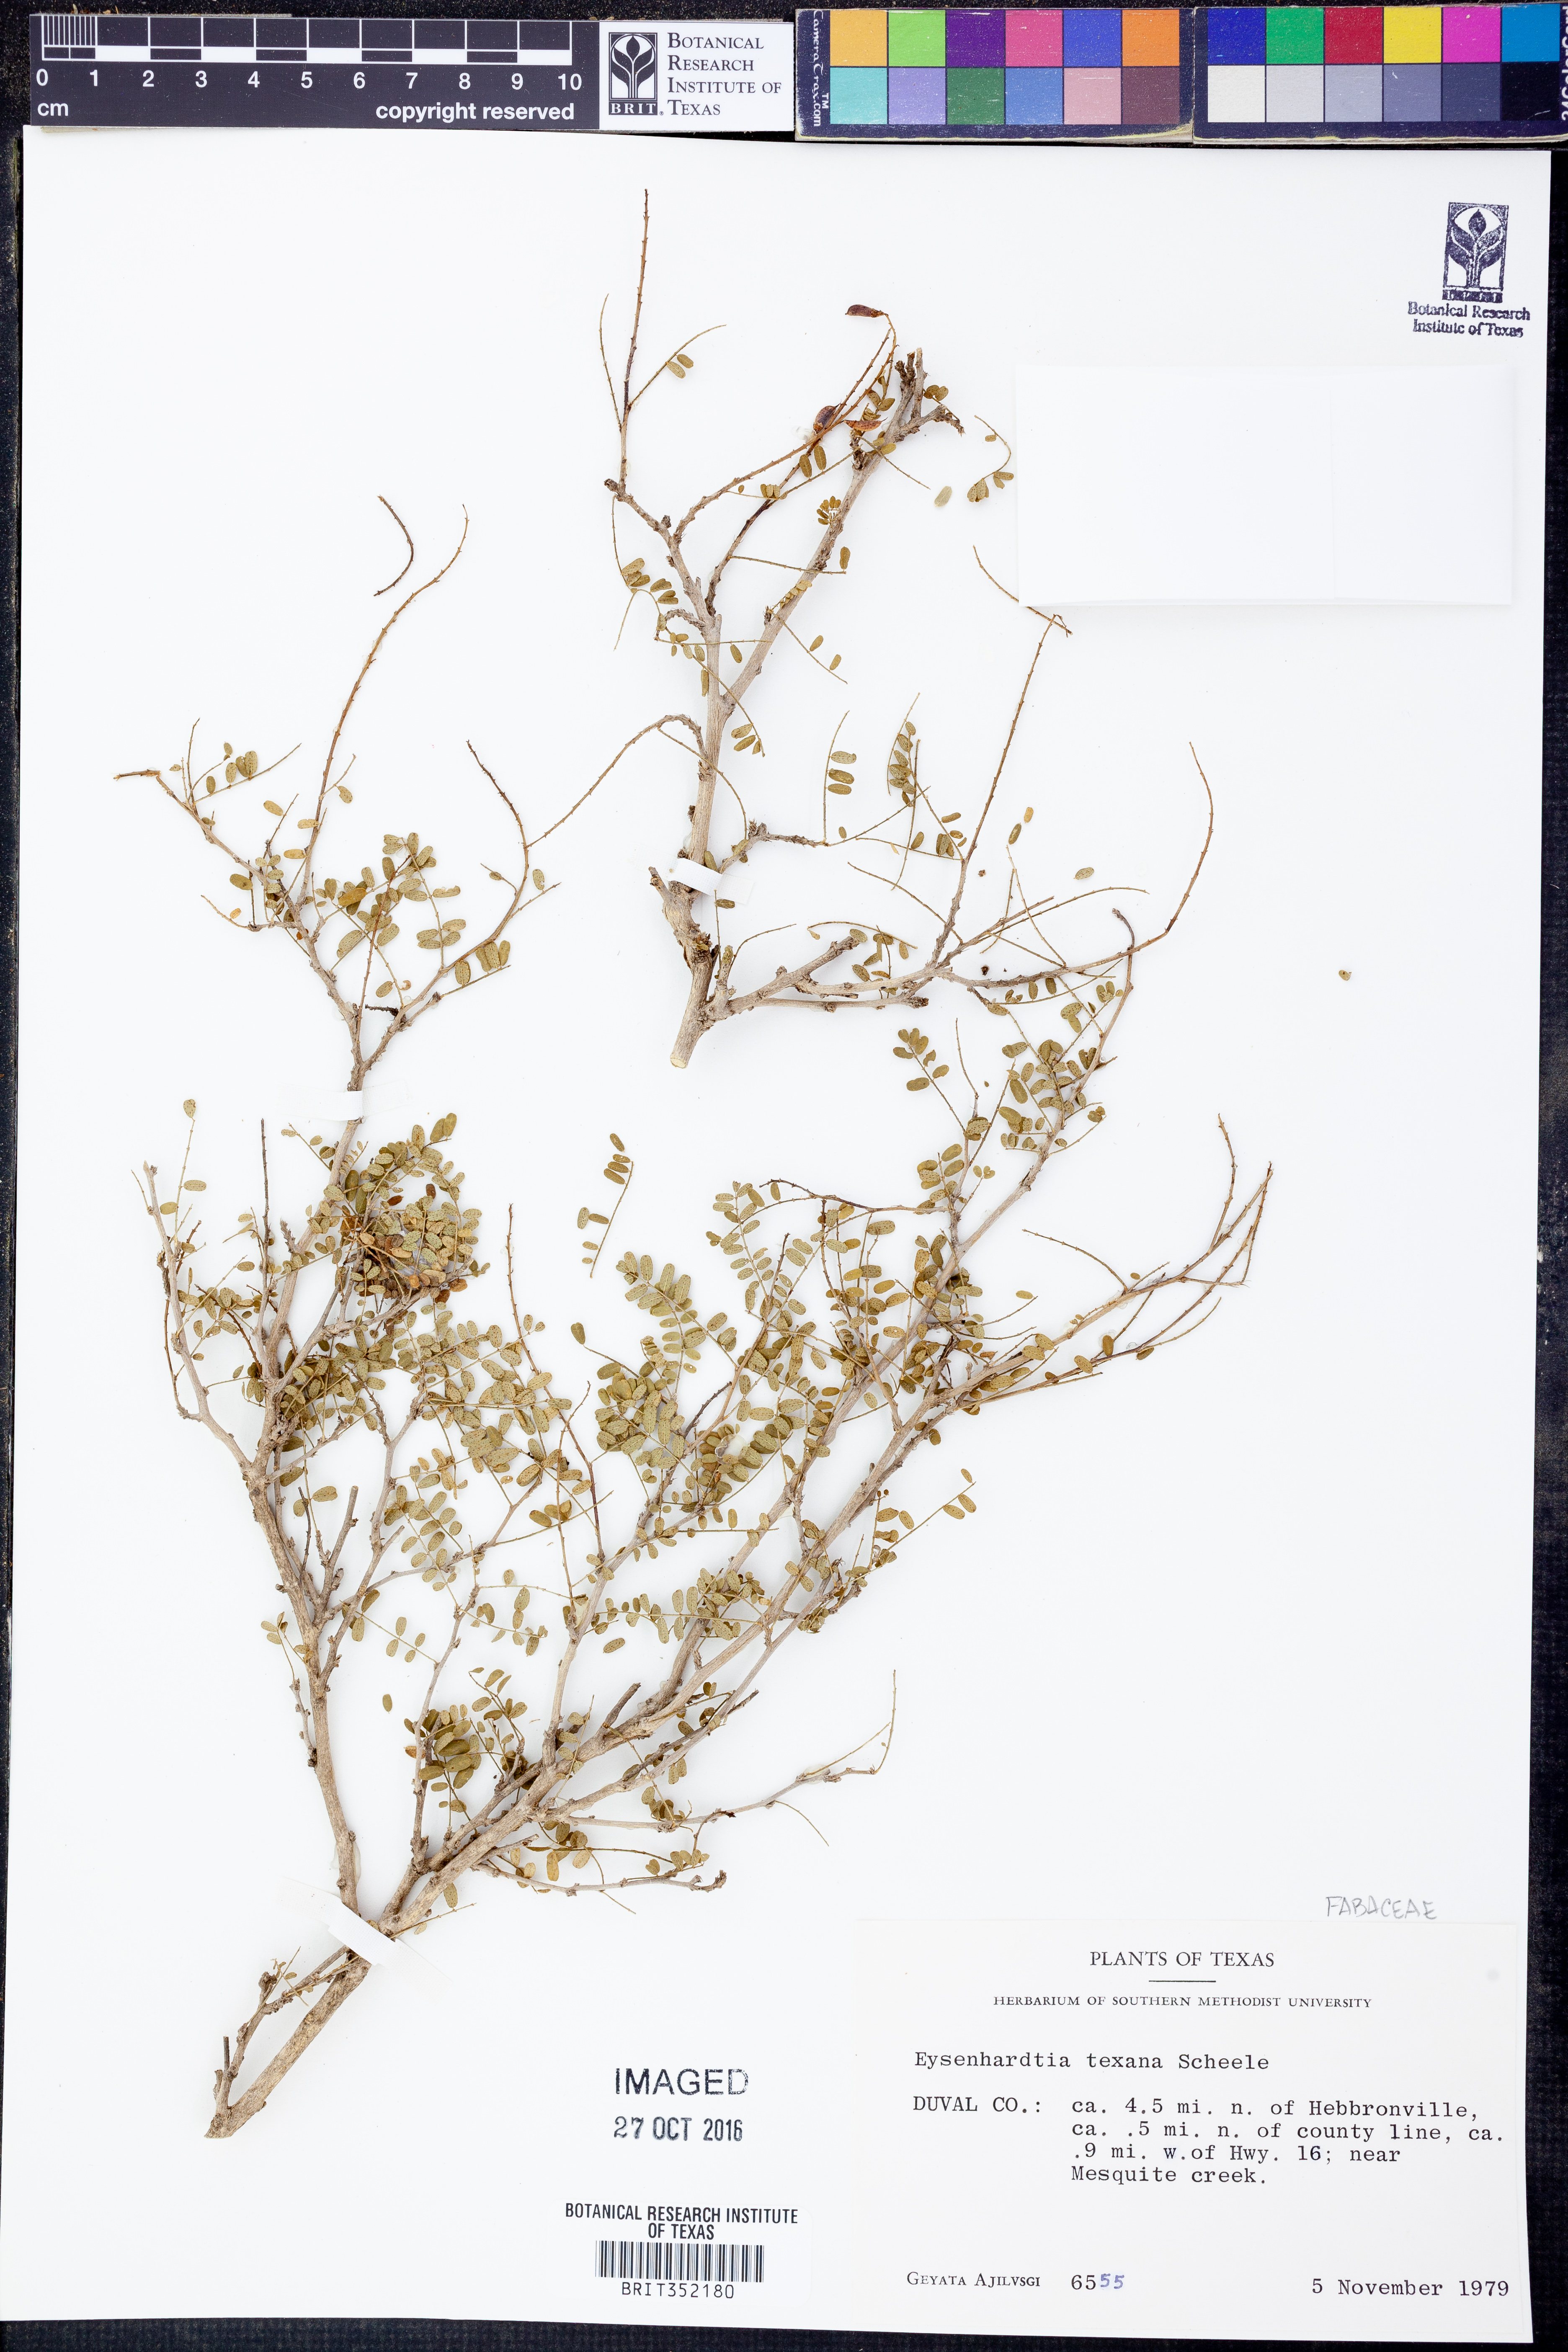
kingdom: Plantae
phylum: Tracheophyta
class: Magnoliopsida
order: Fabales
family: Fabaceae
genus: Eysenhardtia
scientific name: Eysenhardtia texana
